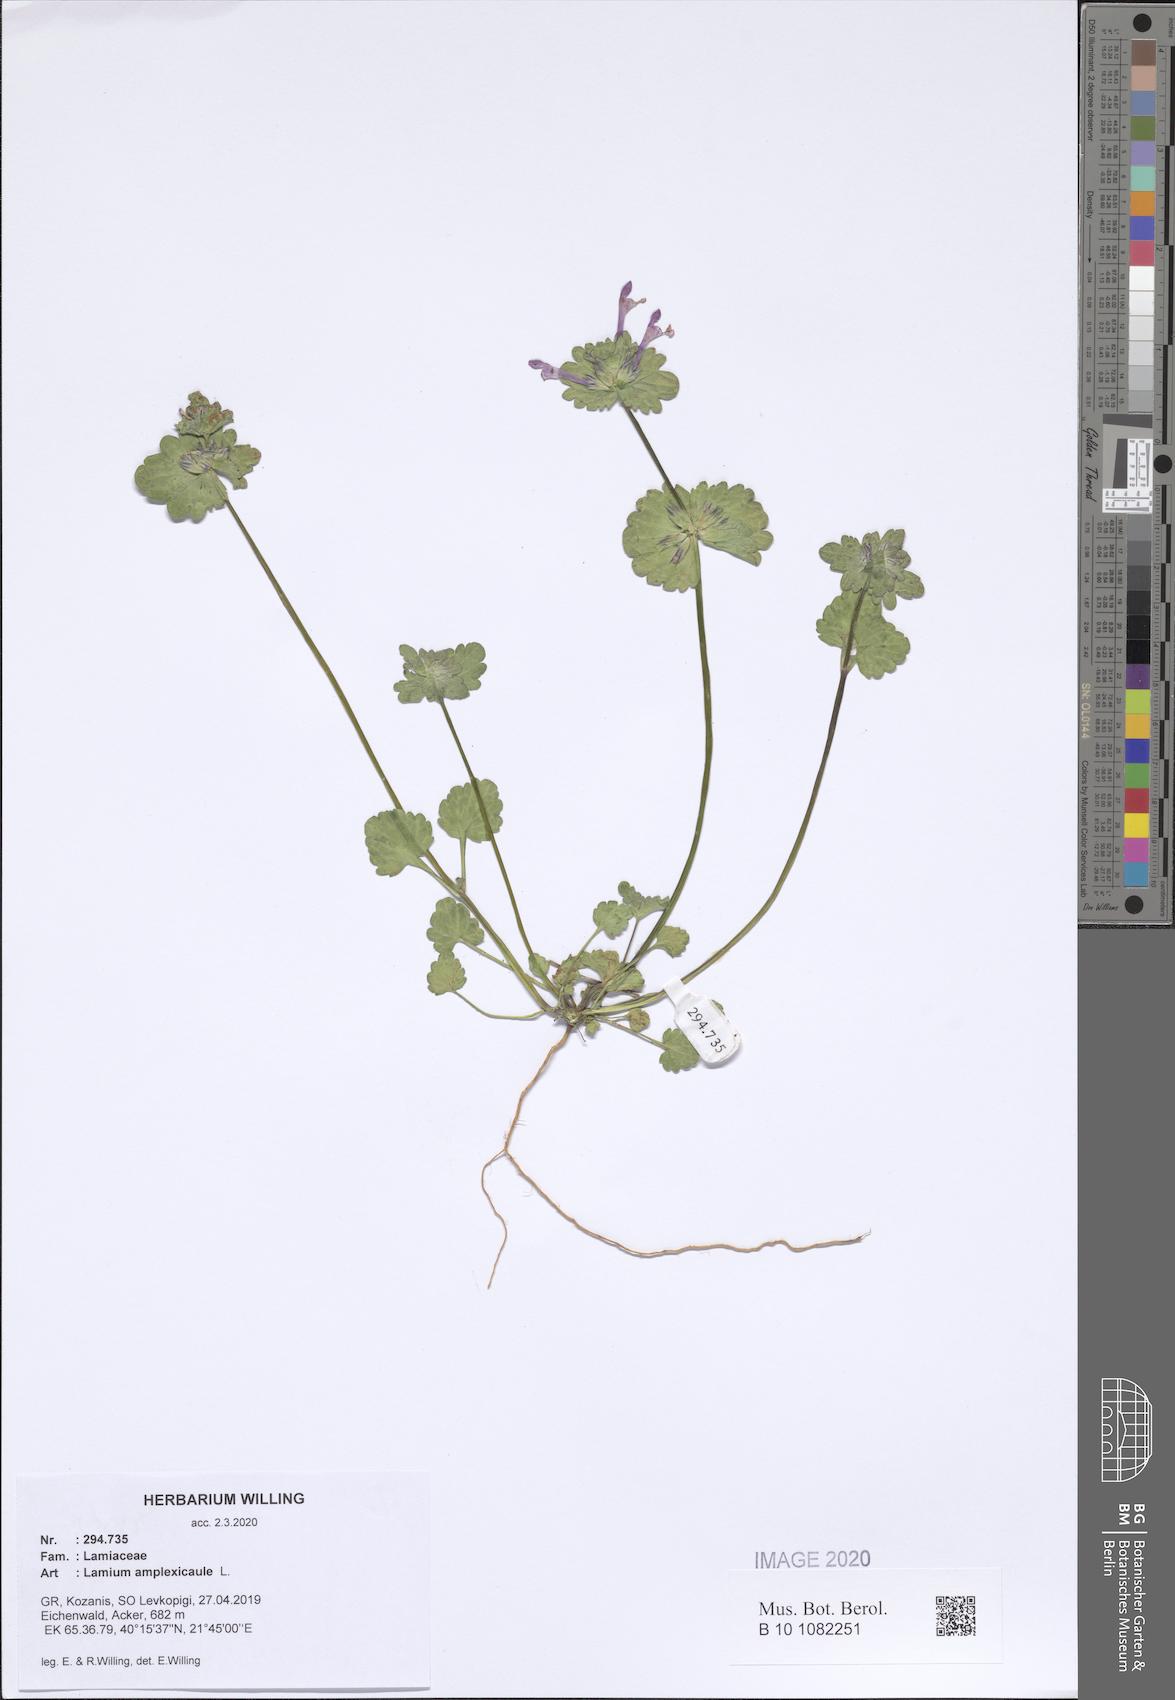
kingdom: Plantae
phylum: Tracheophyta
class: Magnoliopsida
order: Lamiales
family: Lamiaceae
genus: Lamium
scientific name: Lamium amplexicaule
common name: Henbit dead-nettle
